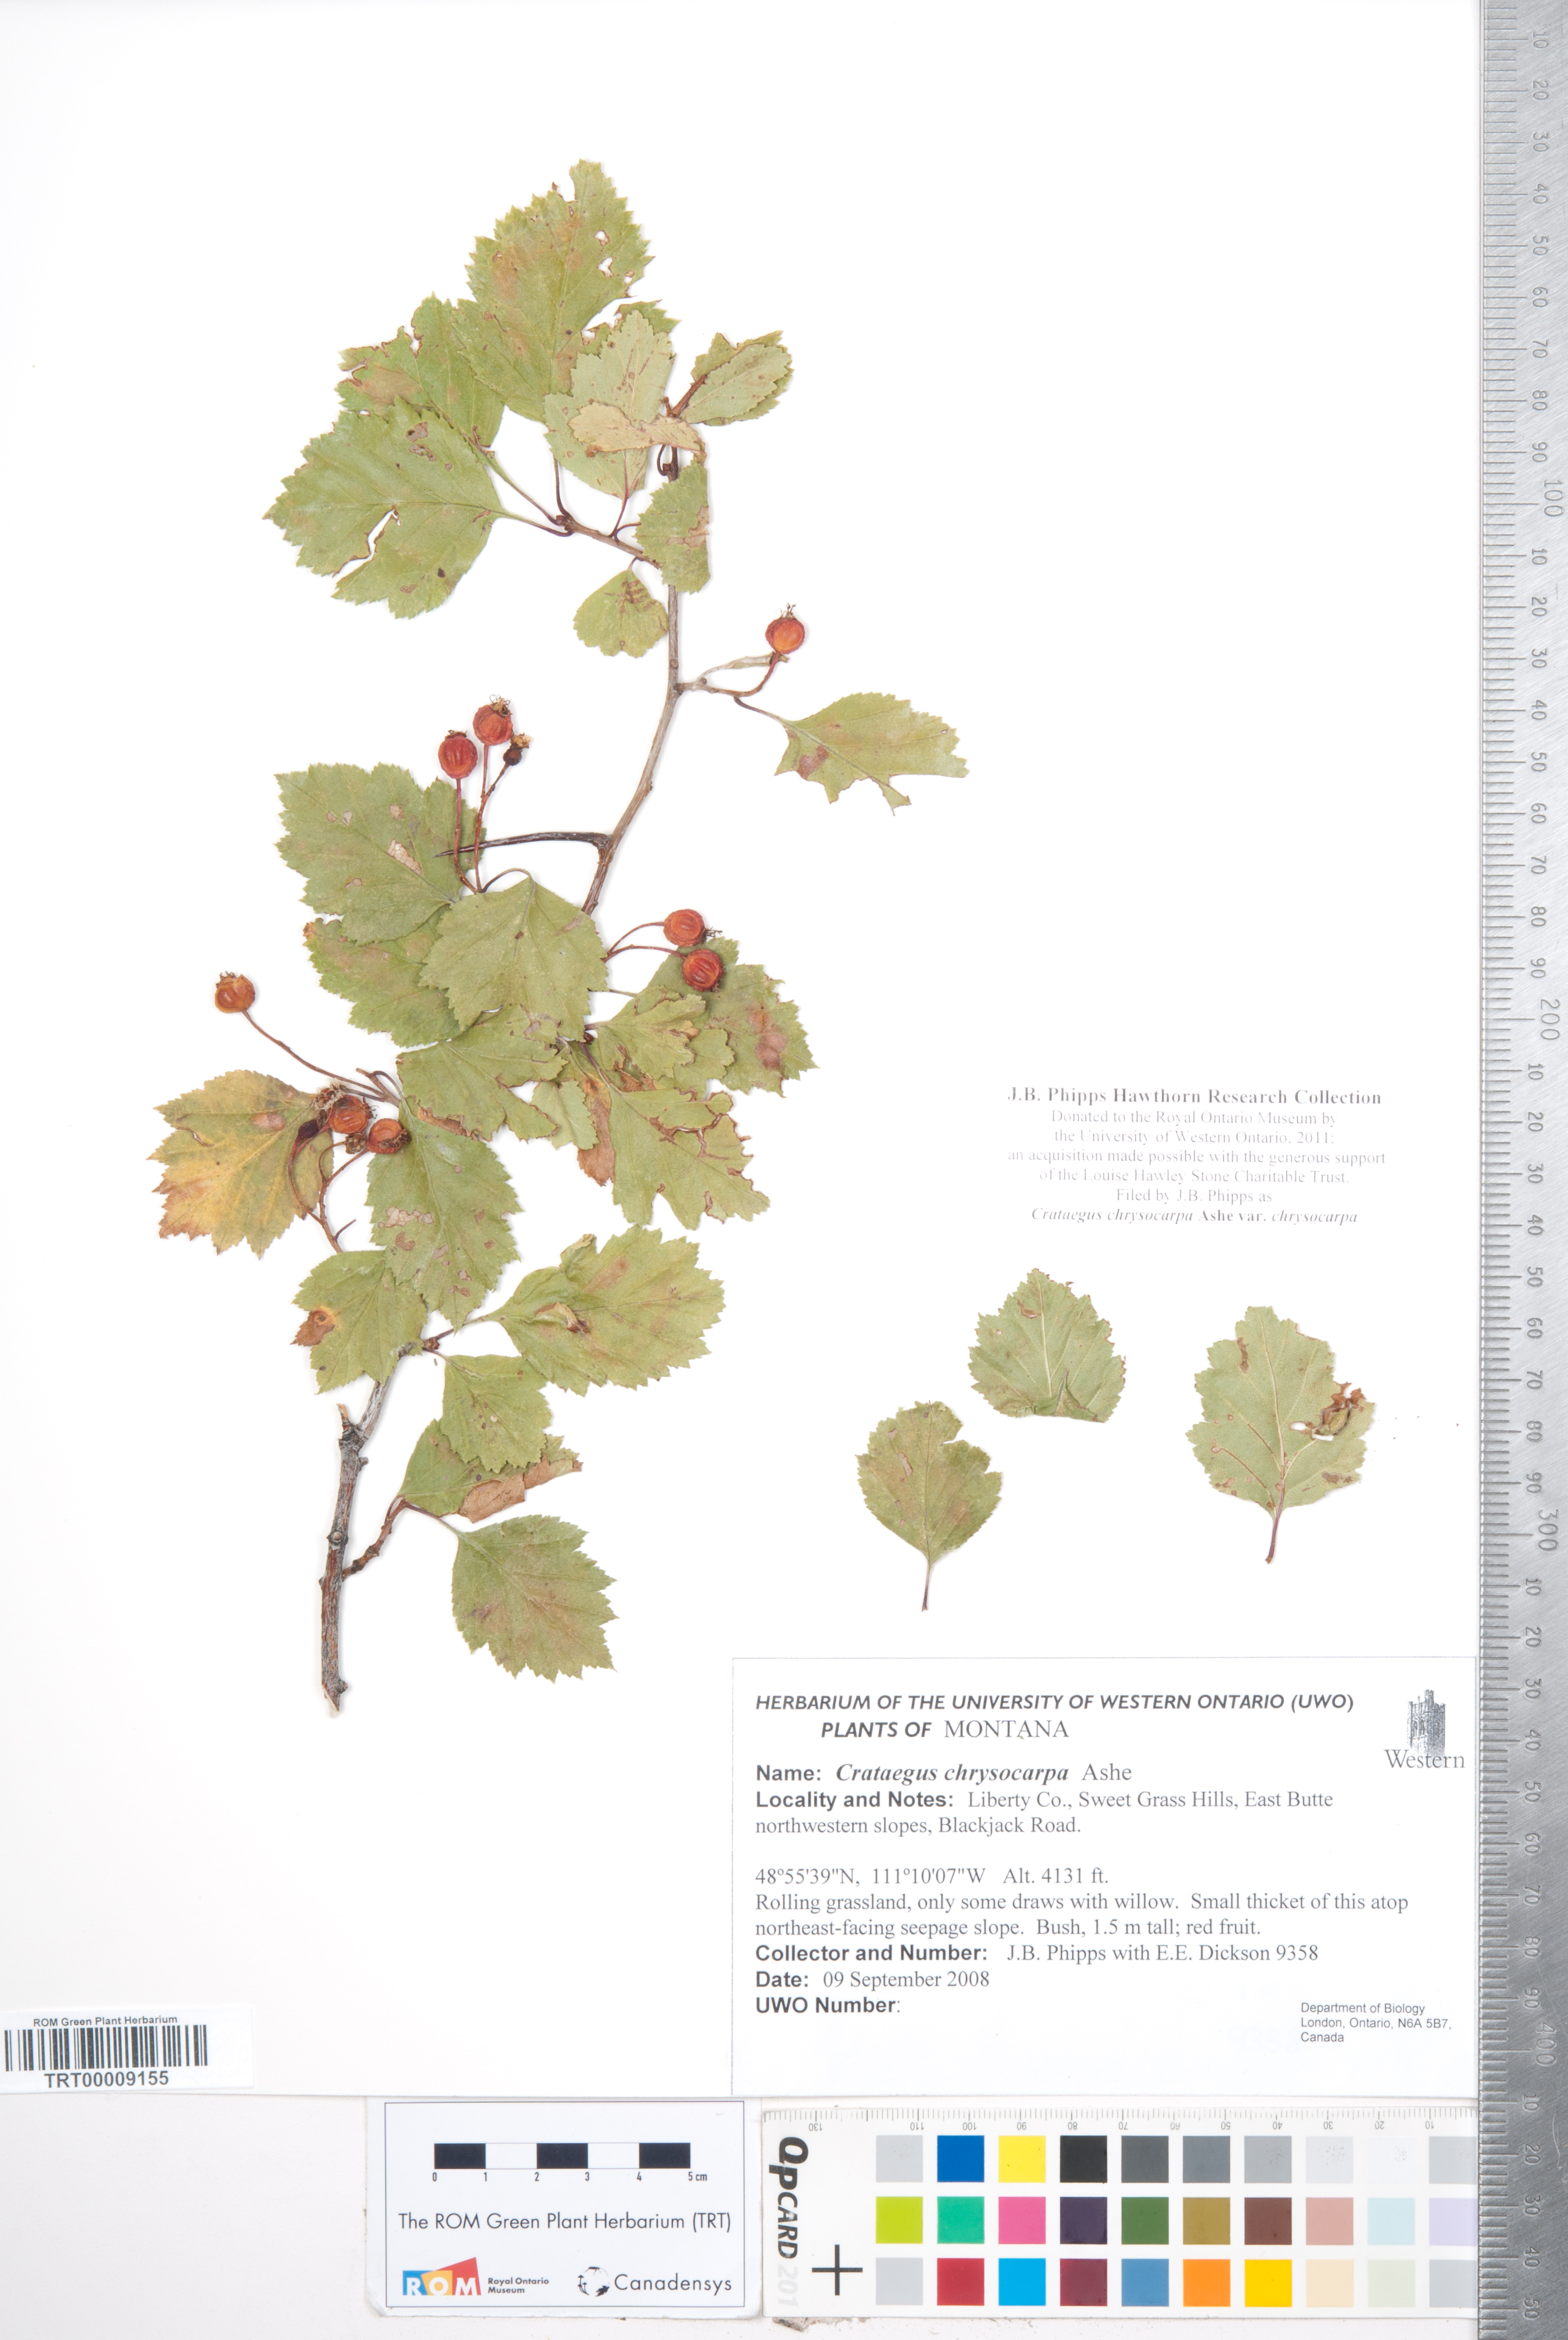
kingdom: Plantae
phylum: Tracheophyta
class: Magnoliopsida
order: Rosales
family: Rosaceae
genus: Crataegus
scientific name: Crataegus chrysocarpa
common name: Fire-berry hawthorn
